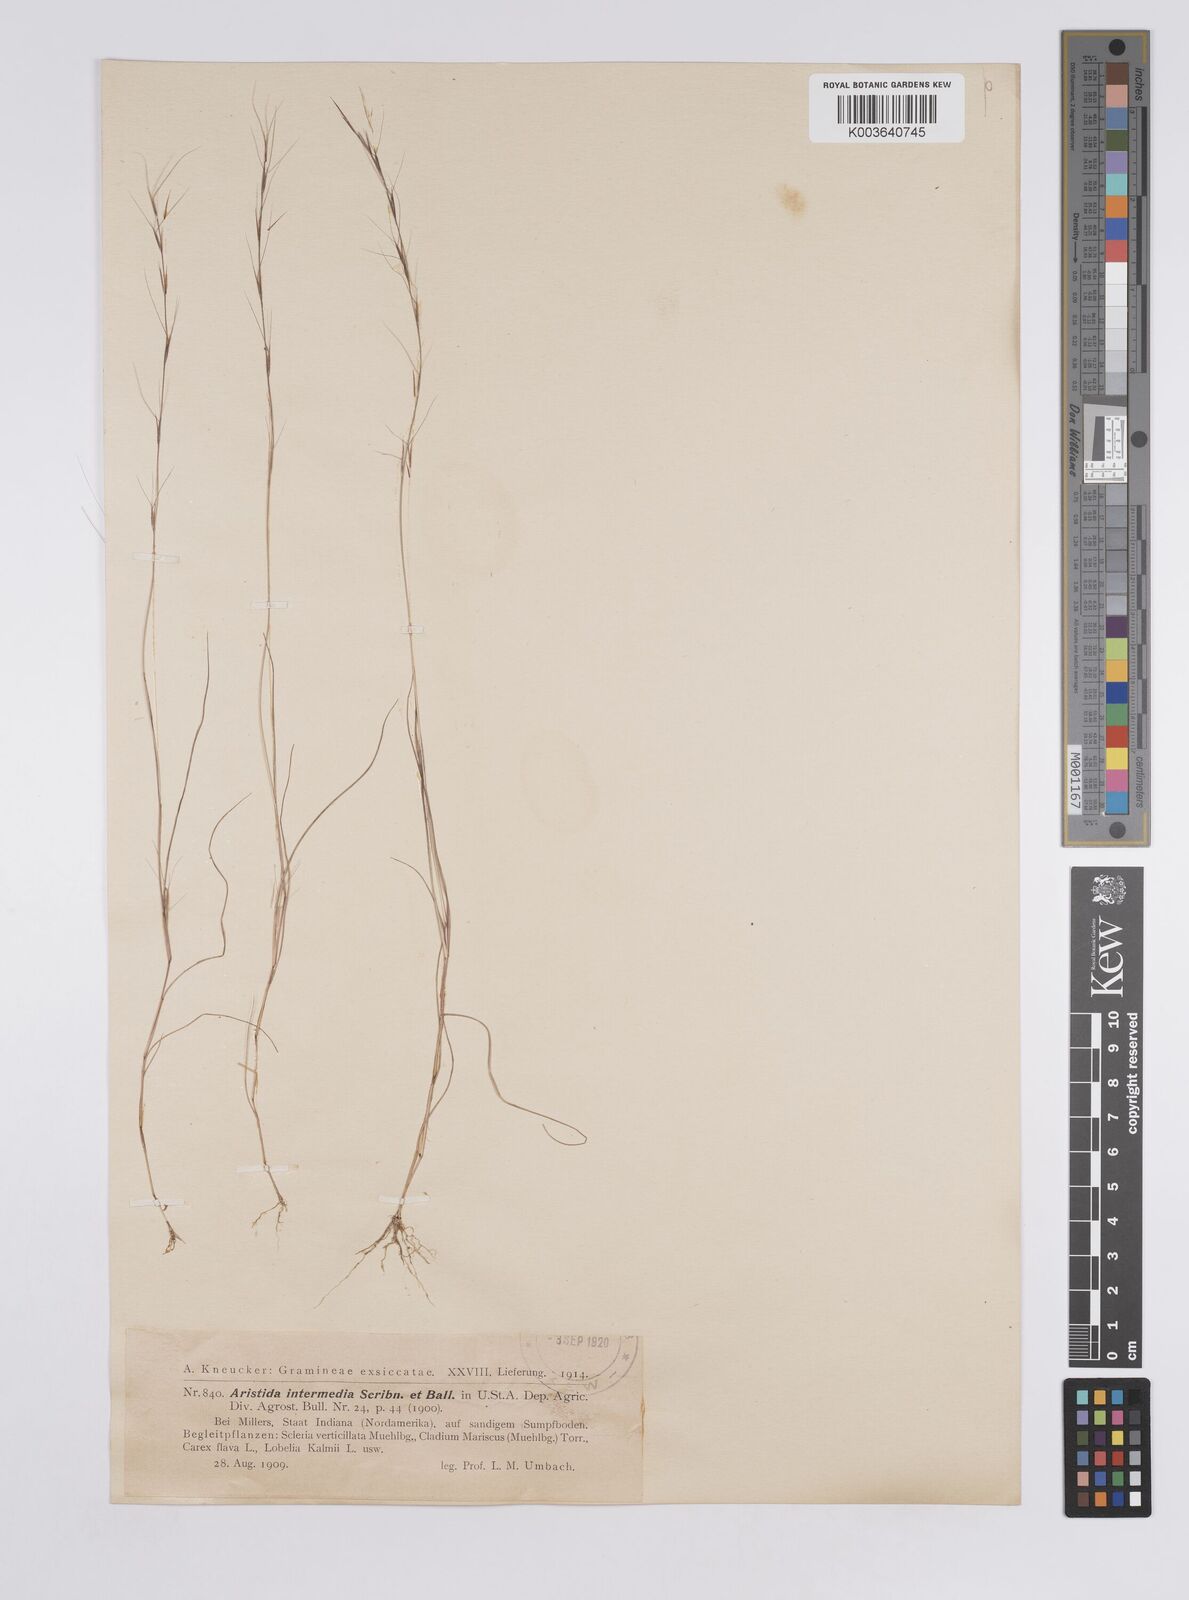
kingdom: Plantae
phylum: Tracheophyta
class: Liliopsida
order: Poales
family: Poaceae
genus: Aristida
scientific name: Aristida adscensionis
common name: Sixweeks threeawn
